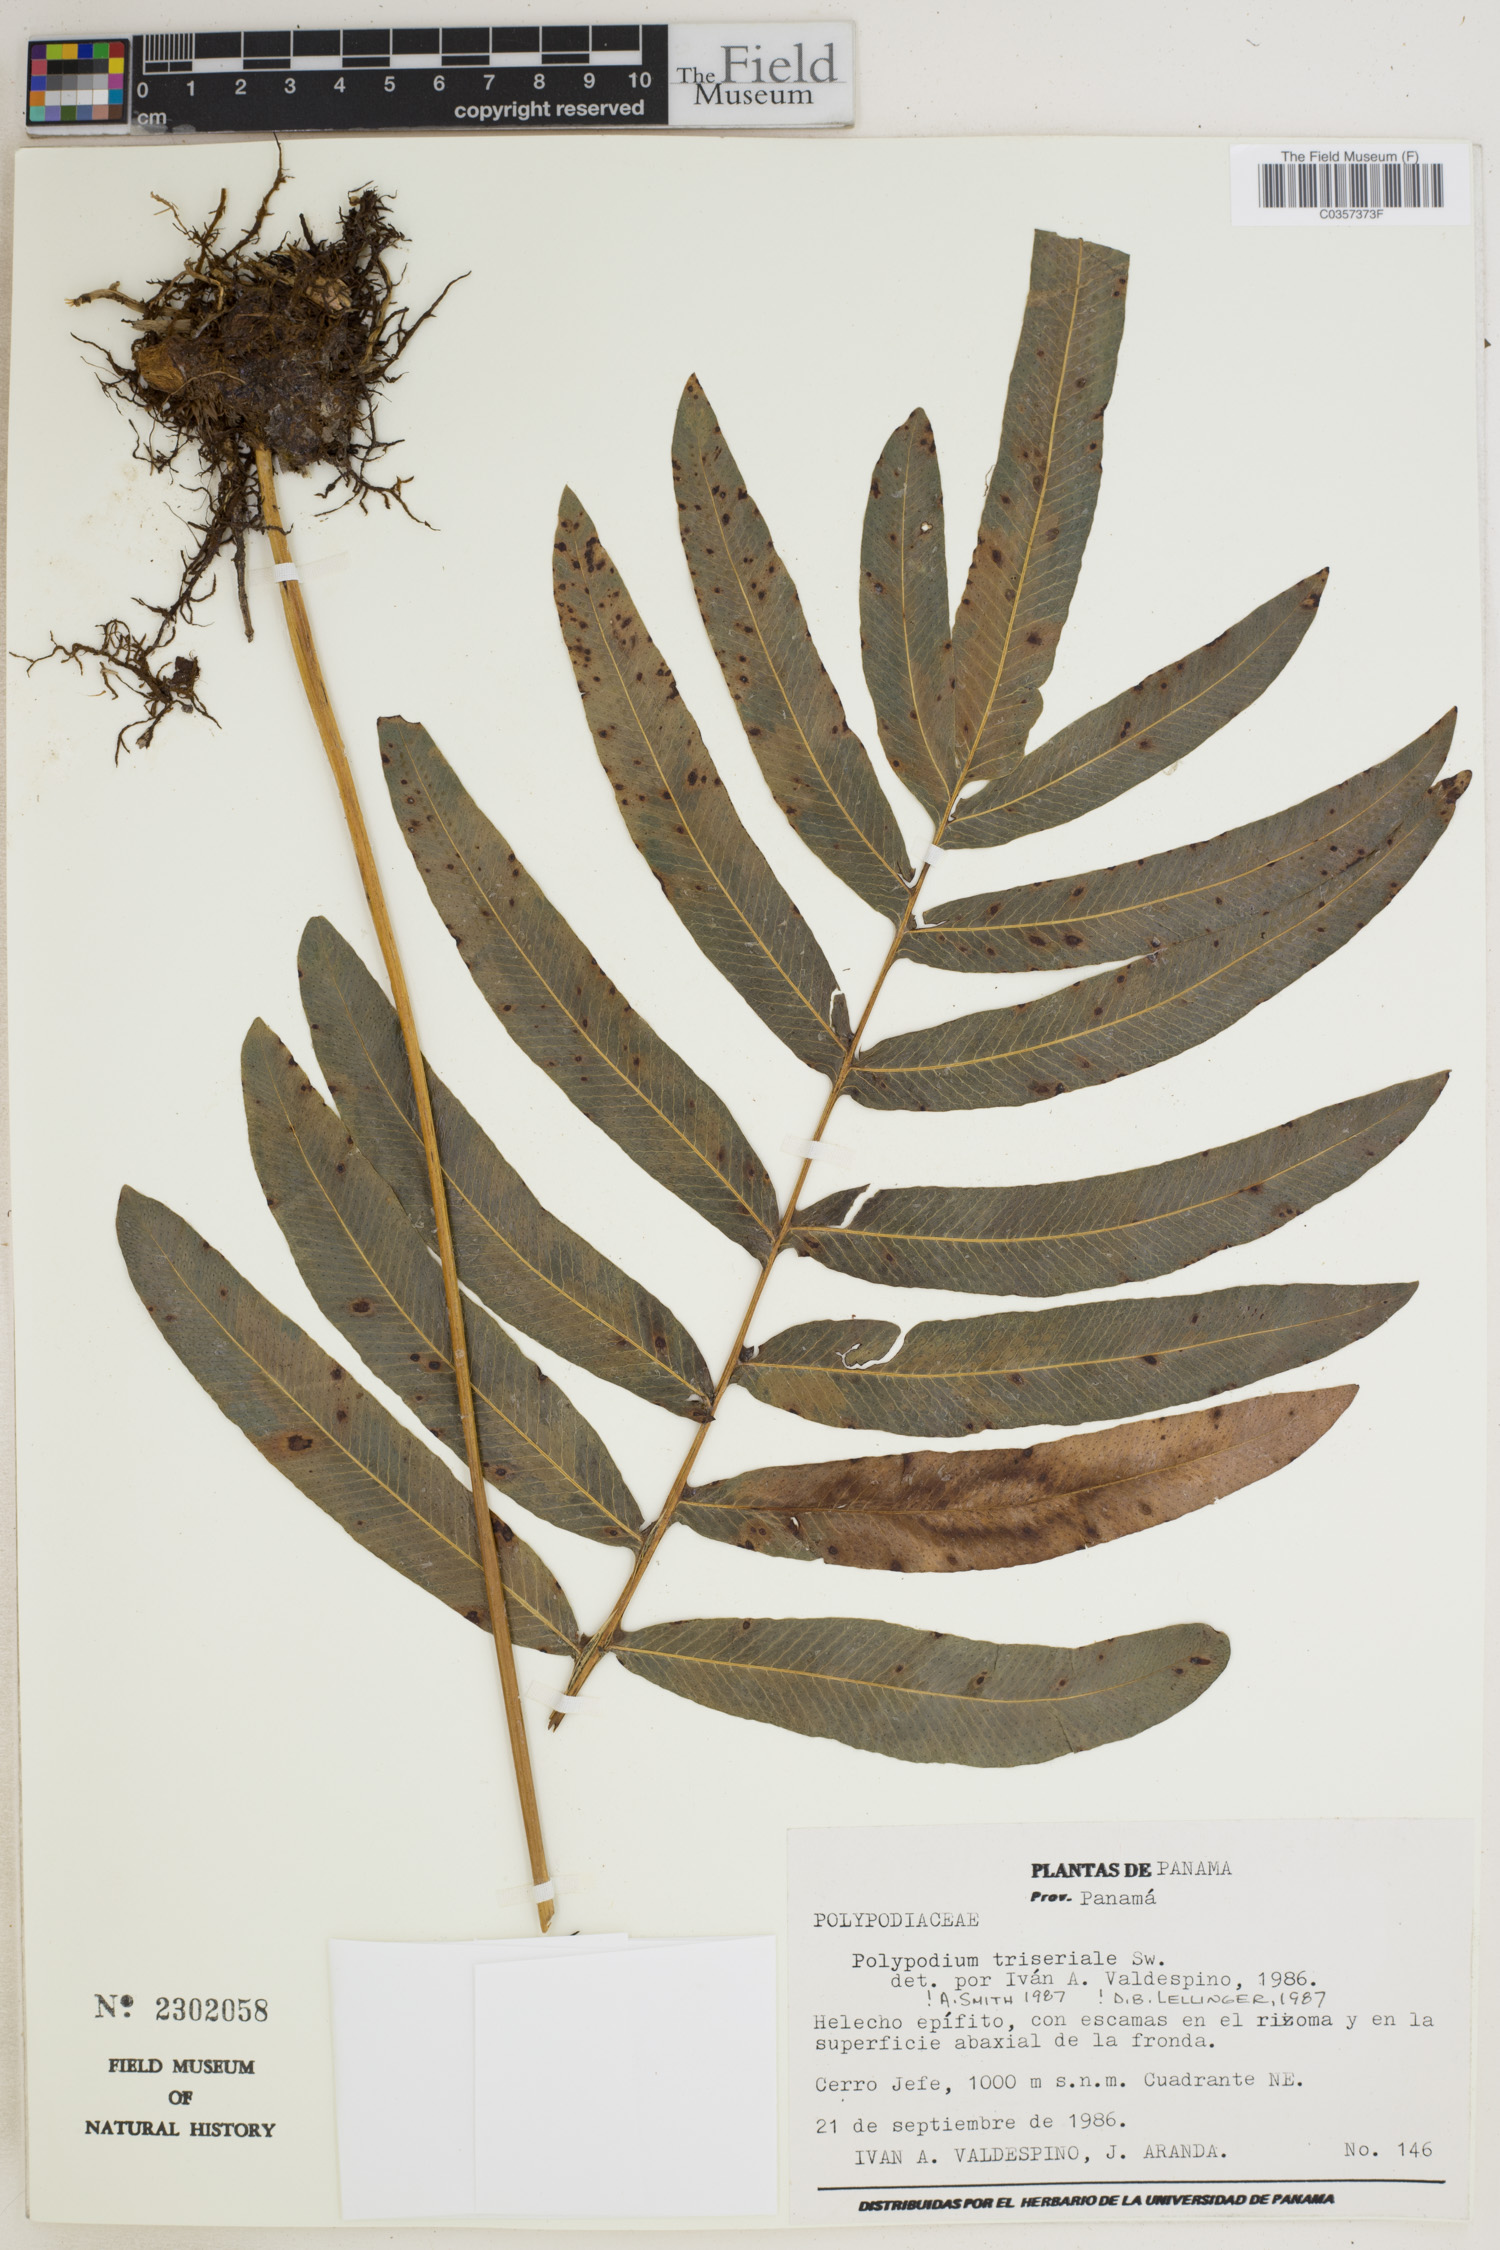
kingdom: Plantae
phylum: Tracheophyta
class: Polypodiopsida
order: Polypodiales
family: Polypodiaceae
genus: Serpocaulon
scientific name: Serpocaulon triseriale
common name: Angle-vein fern
